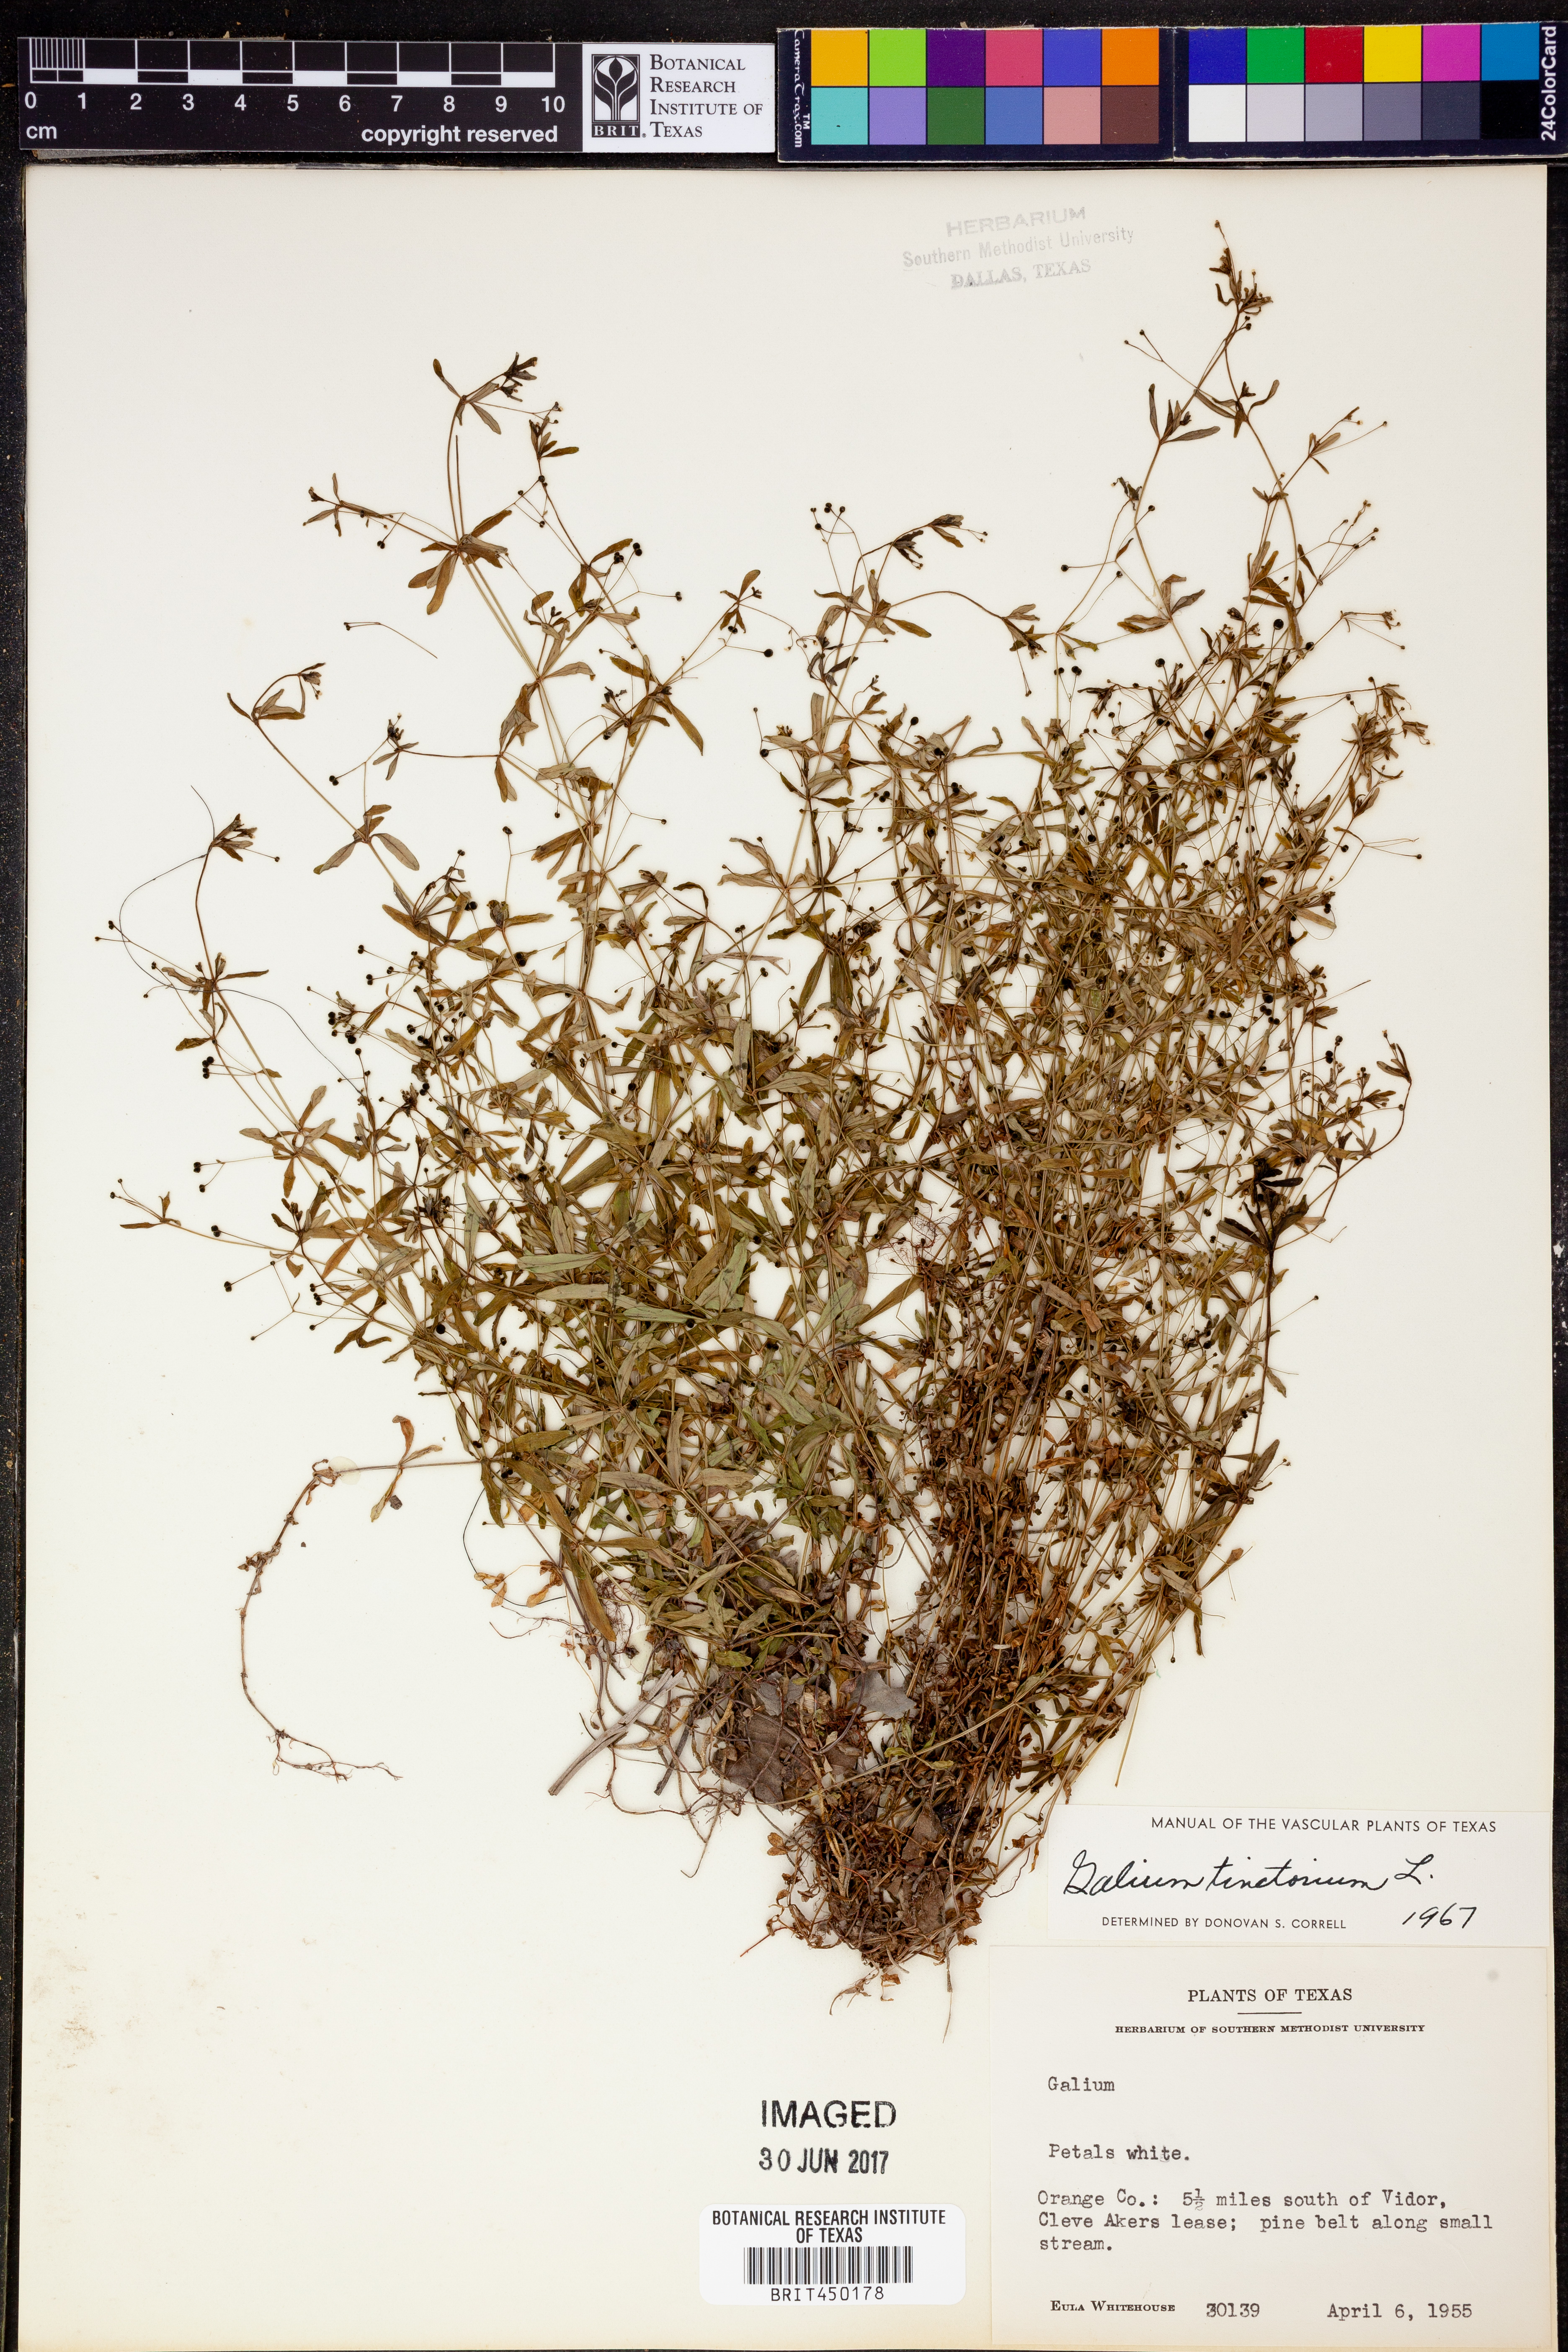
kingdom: Plantae
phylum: Tracheophyta
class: Magnoliopsida
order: Gentianales
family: Rubiaceae
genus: Asperula
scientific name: Asperula tinctoria
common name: Dyer's woodruff
